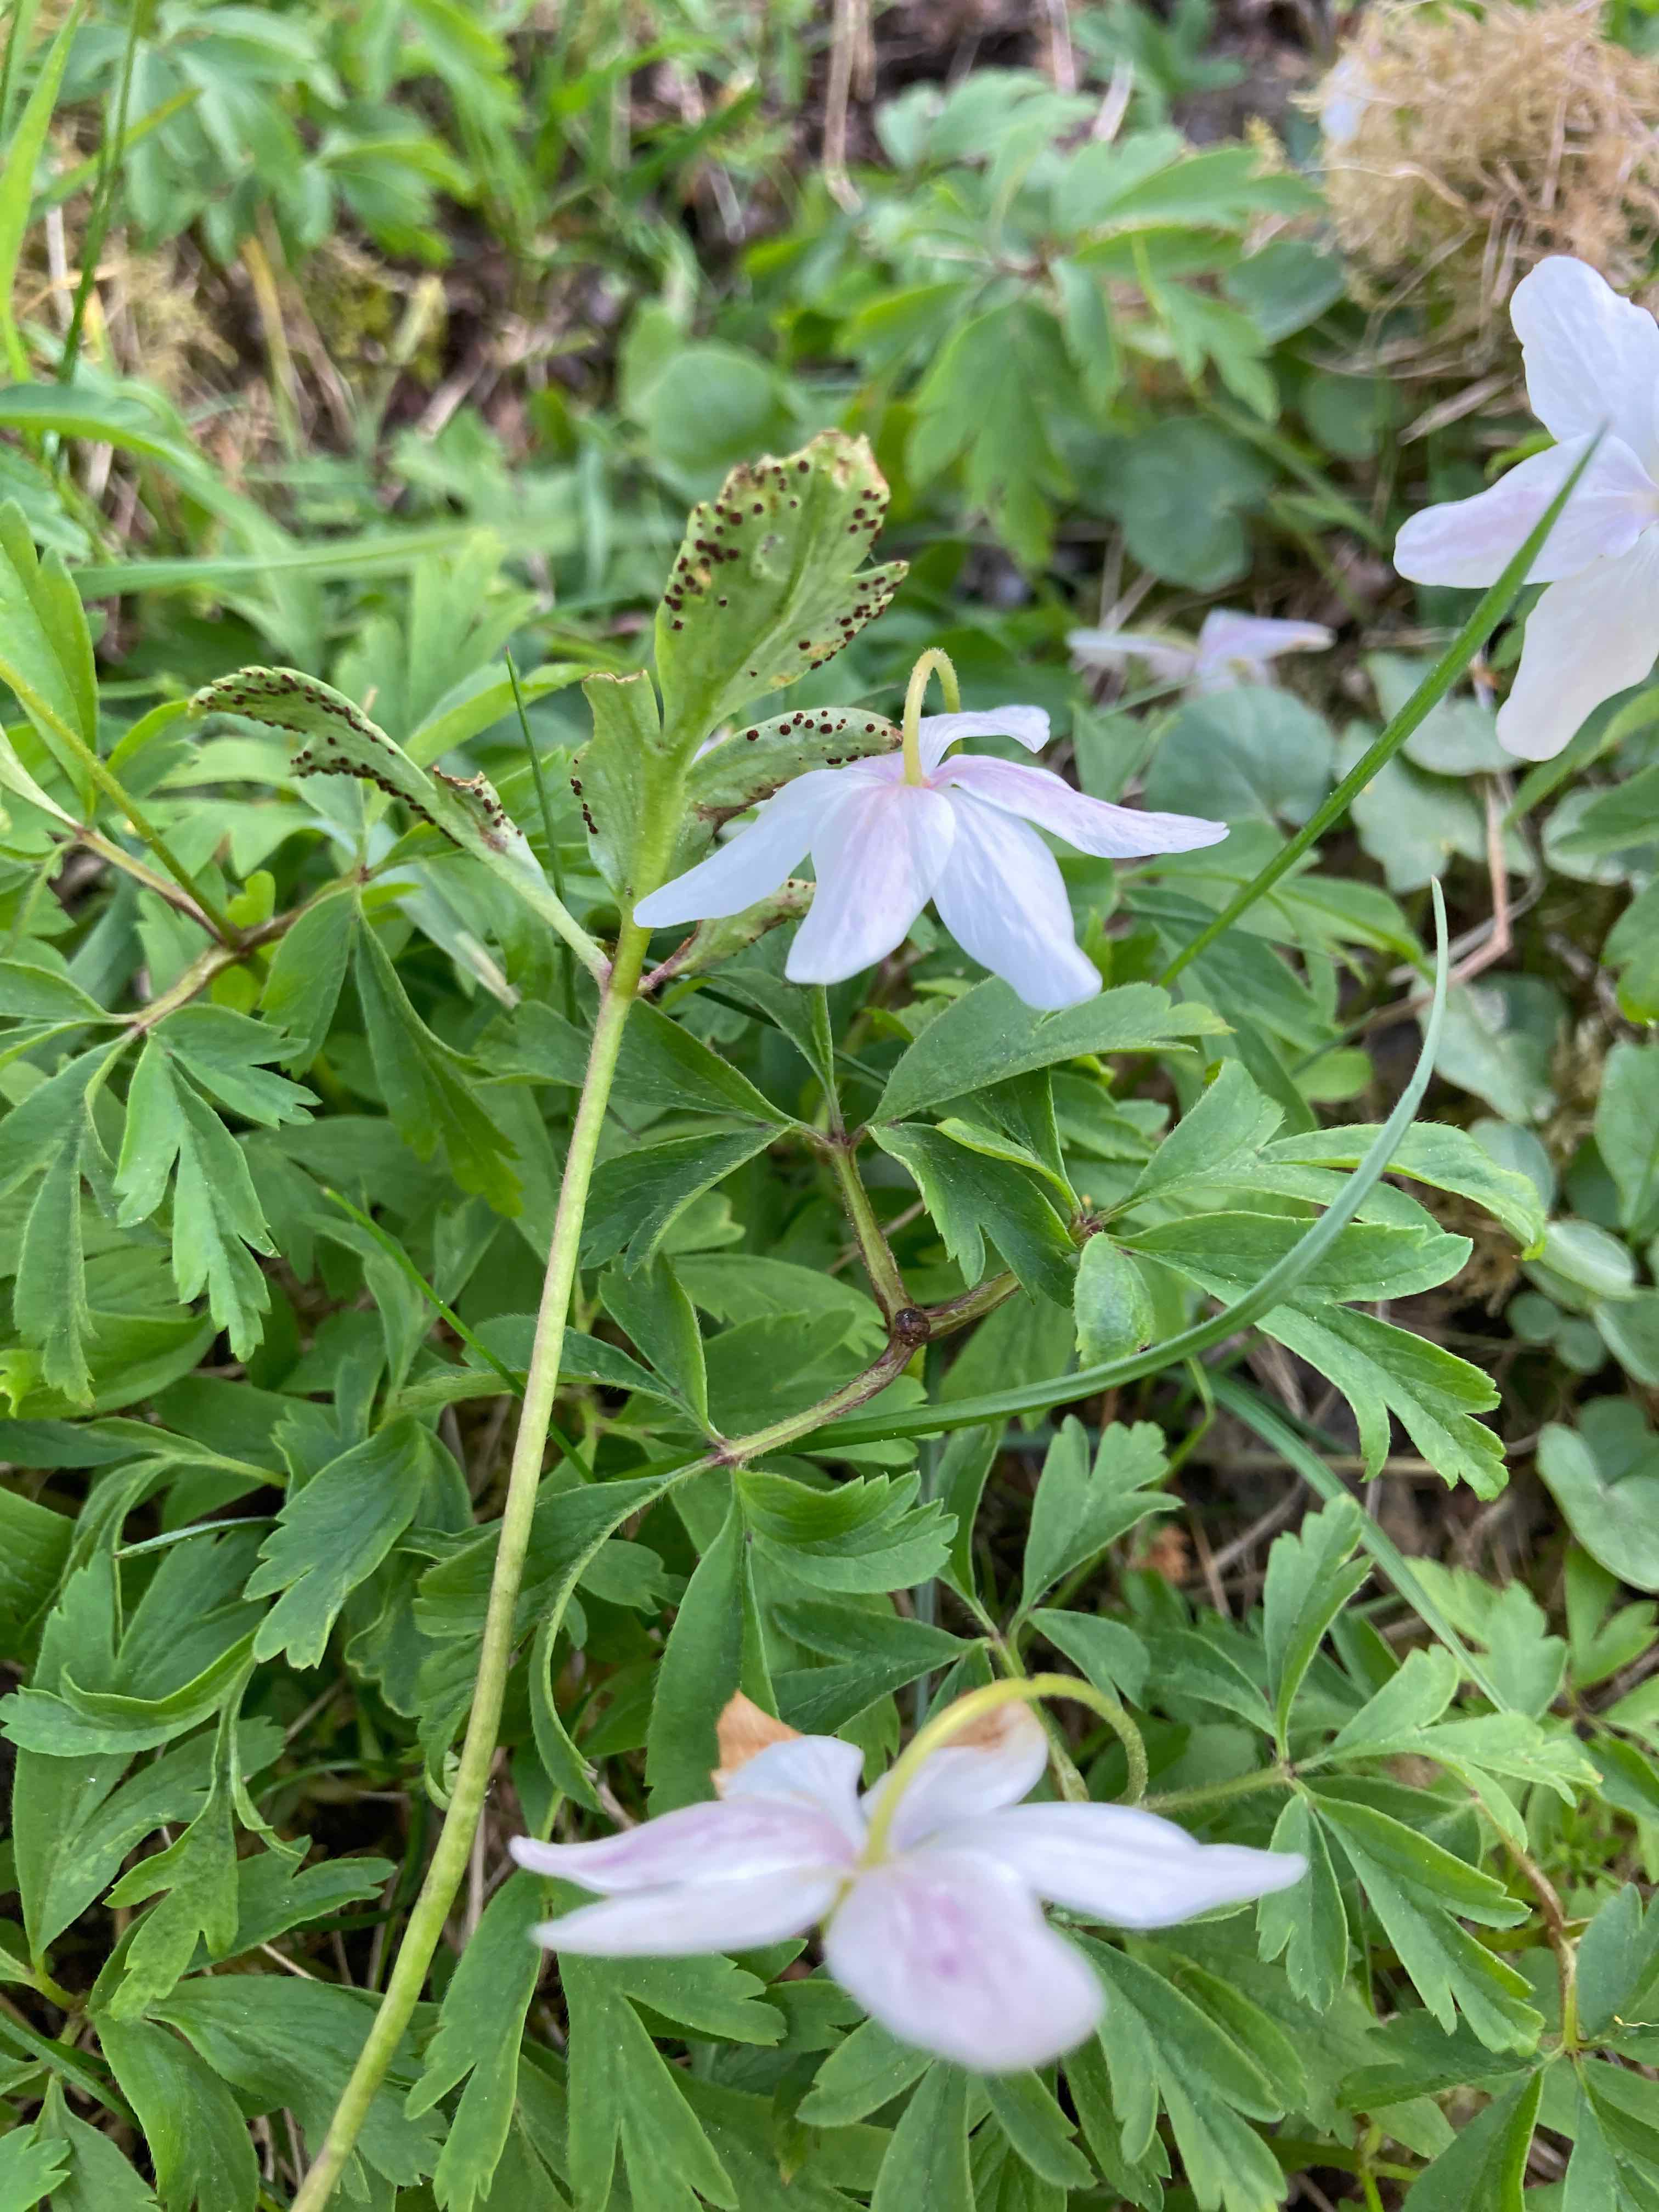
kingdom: Fungi
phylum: Basidiomycota
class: Pucciniomycetes
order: Pucciniales
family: Tranzscheliaceae
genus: Tranzschelia
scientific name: Tranzschelia anemones
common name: anemone-knæksporerust
